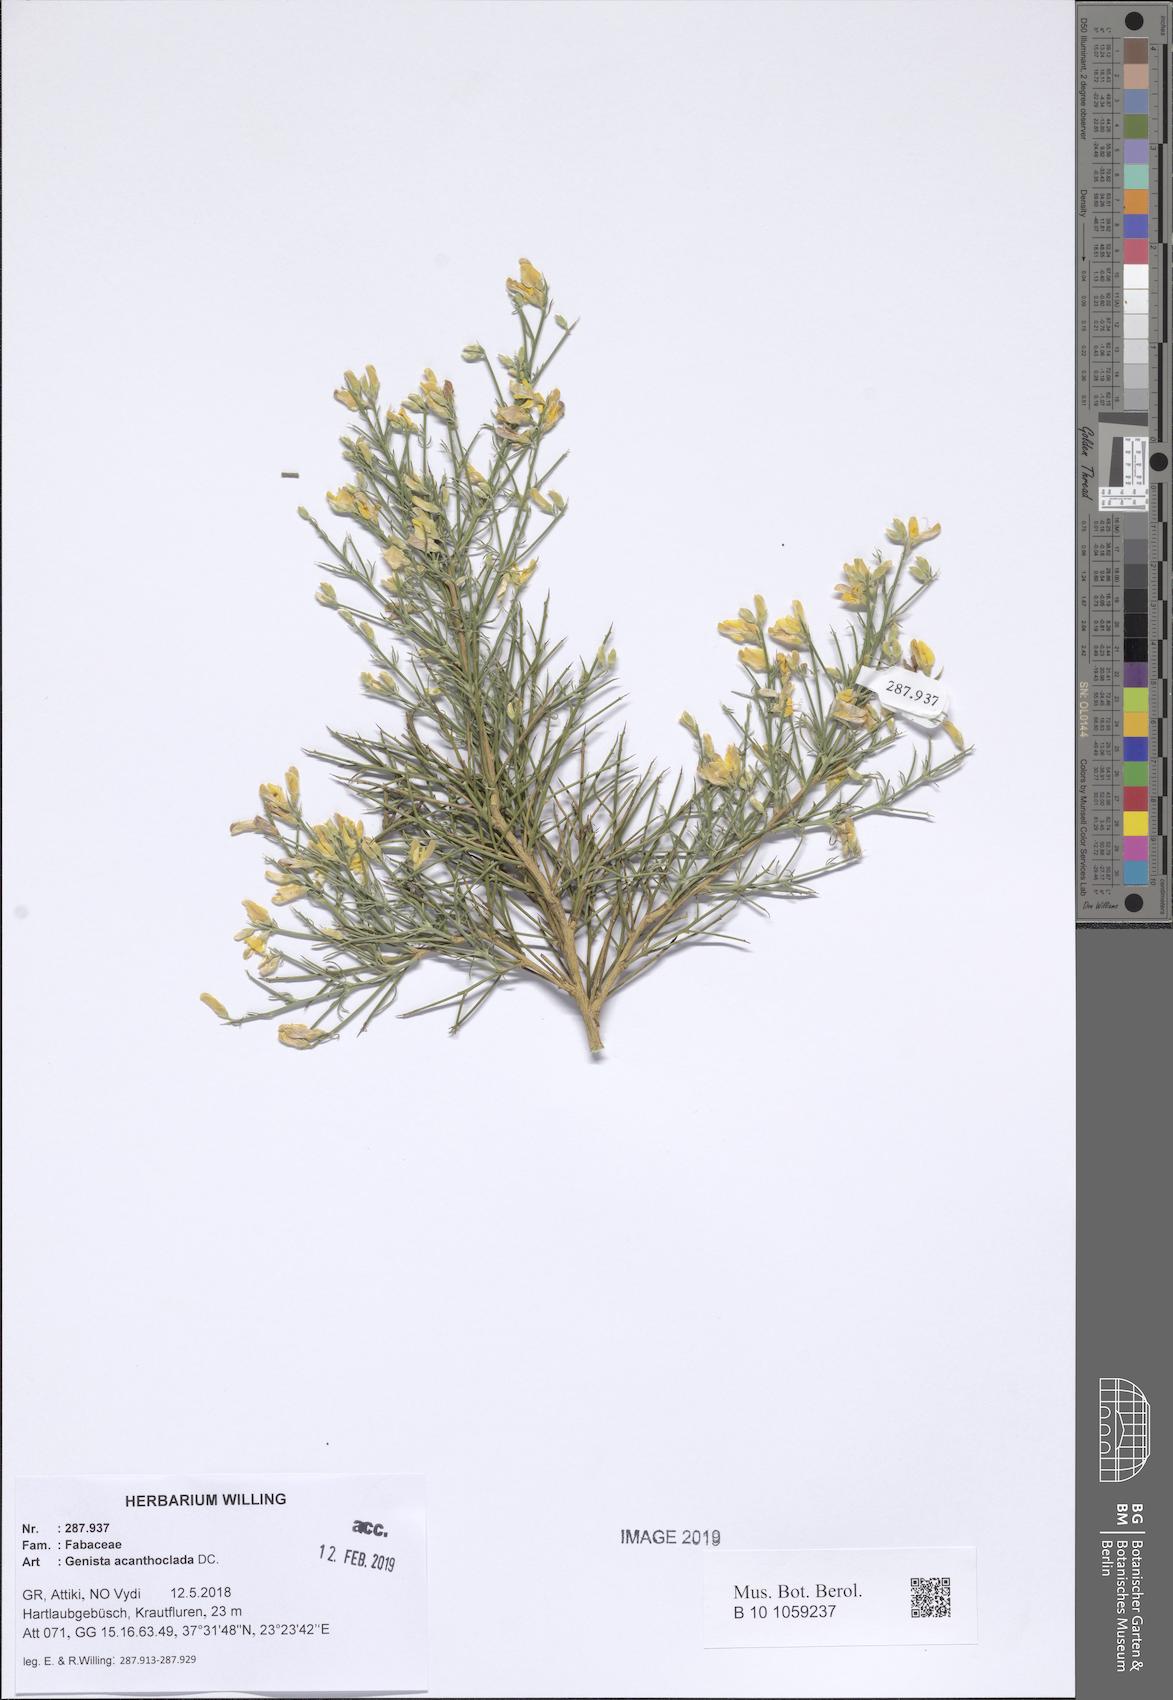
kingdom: Plantae
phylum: Tracheophyta
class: Magnoliopsida
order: Fabales
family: Fabaceae
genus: Genista
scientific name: Genista acanthoclada
